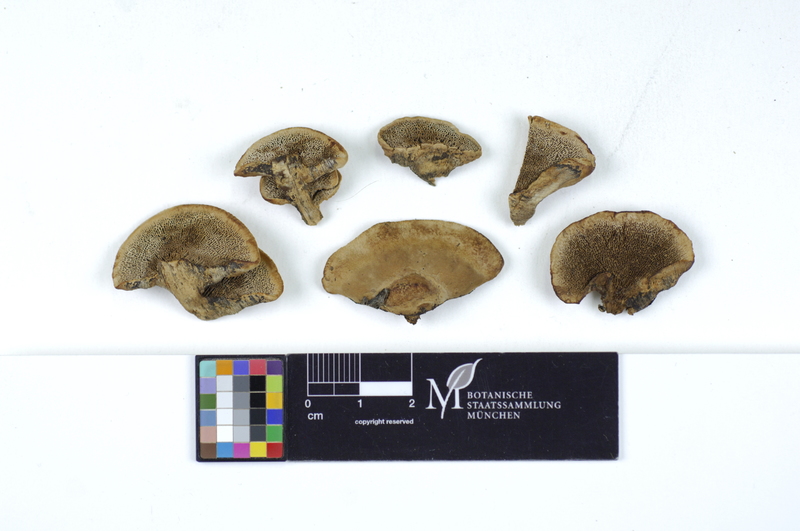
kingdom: Plantae
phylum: Tracheophyta
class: Pinopsida
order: Pinales
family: Pinaceae
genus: Picea
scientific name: Picea
